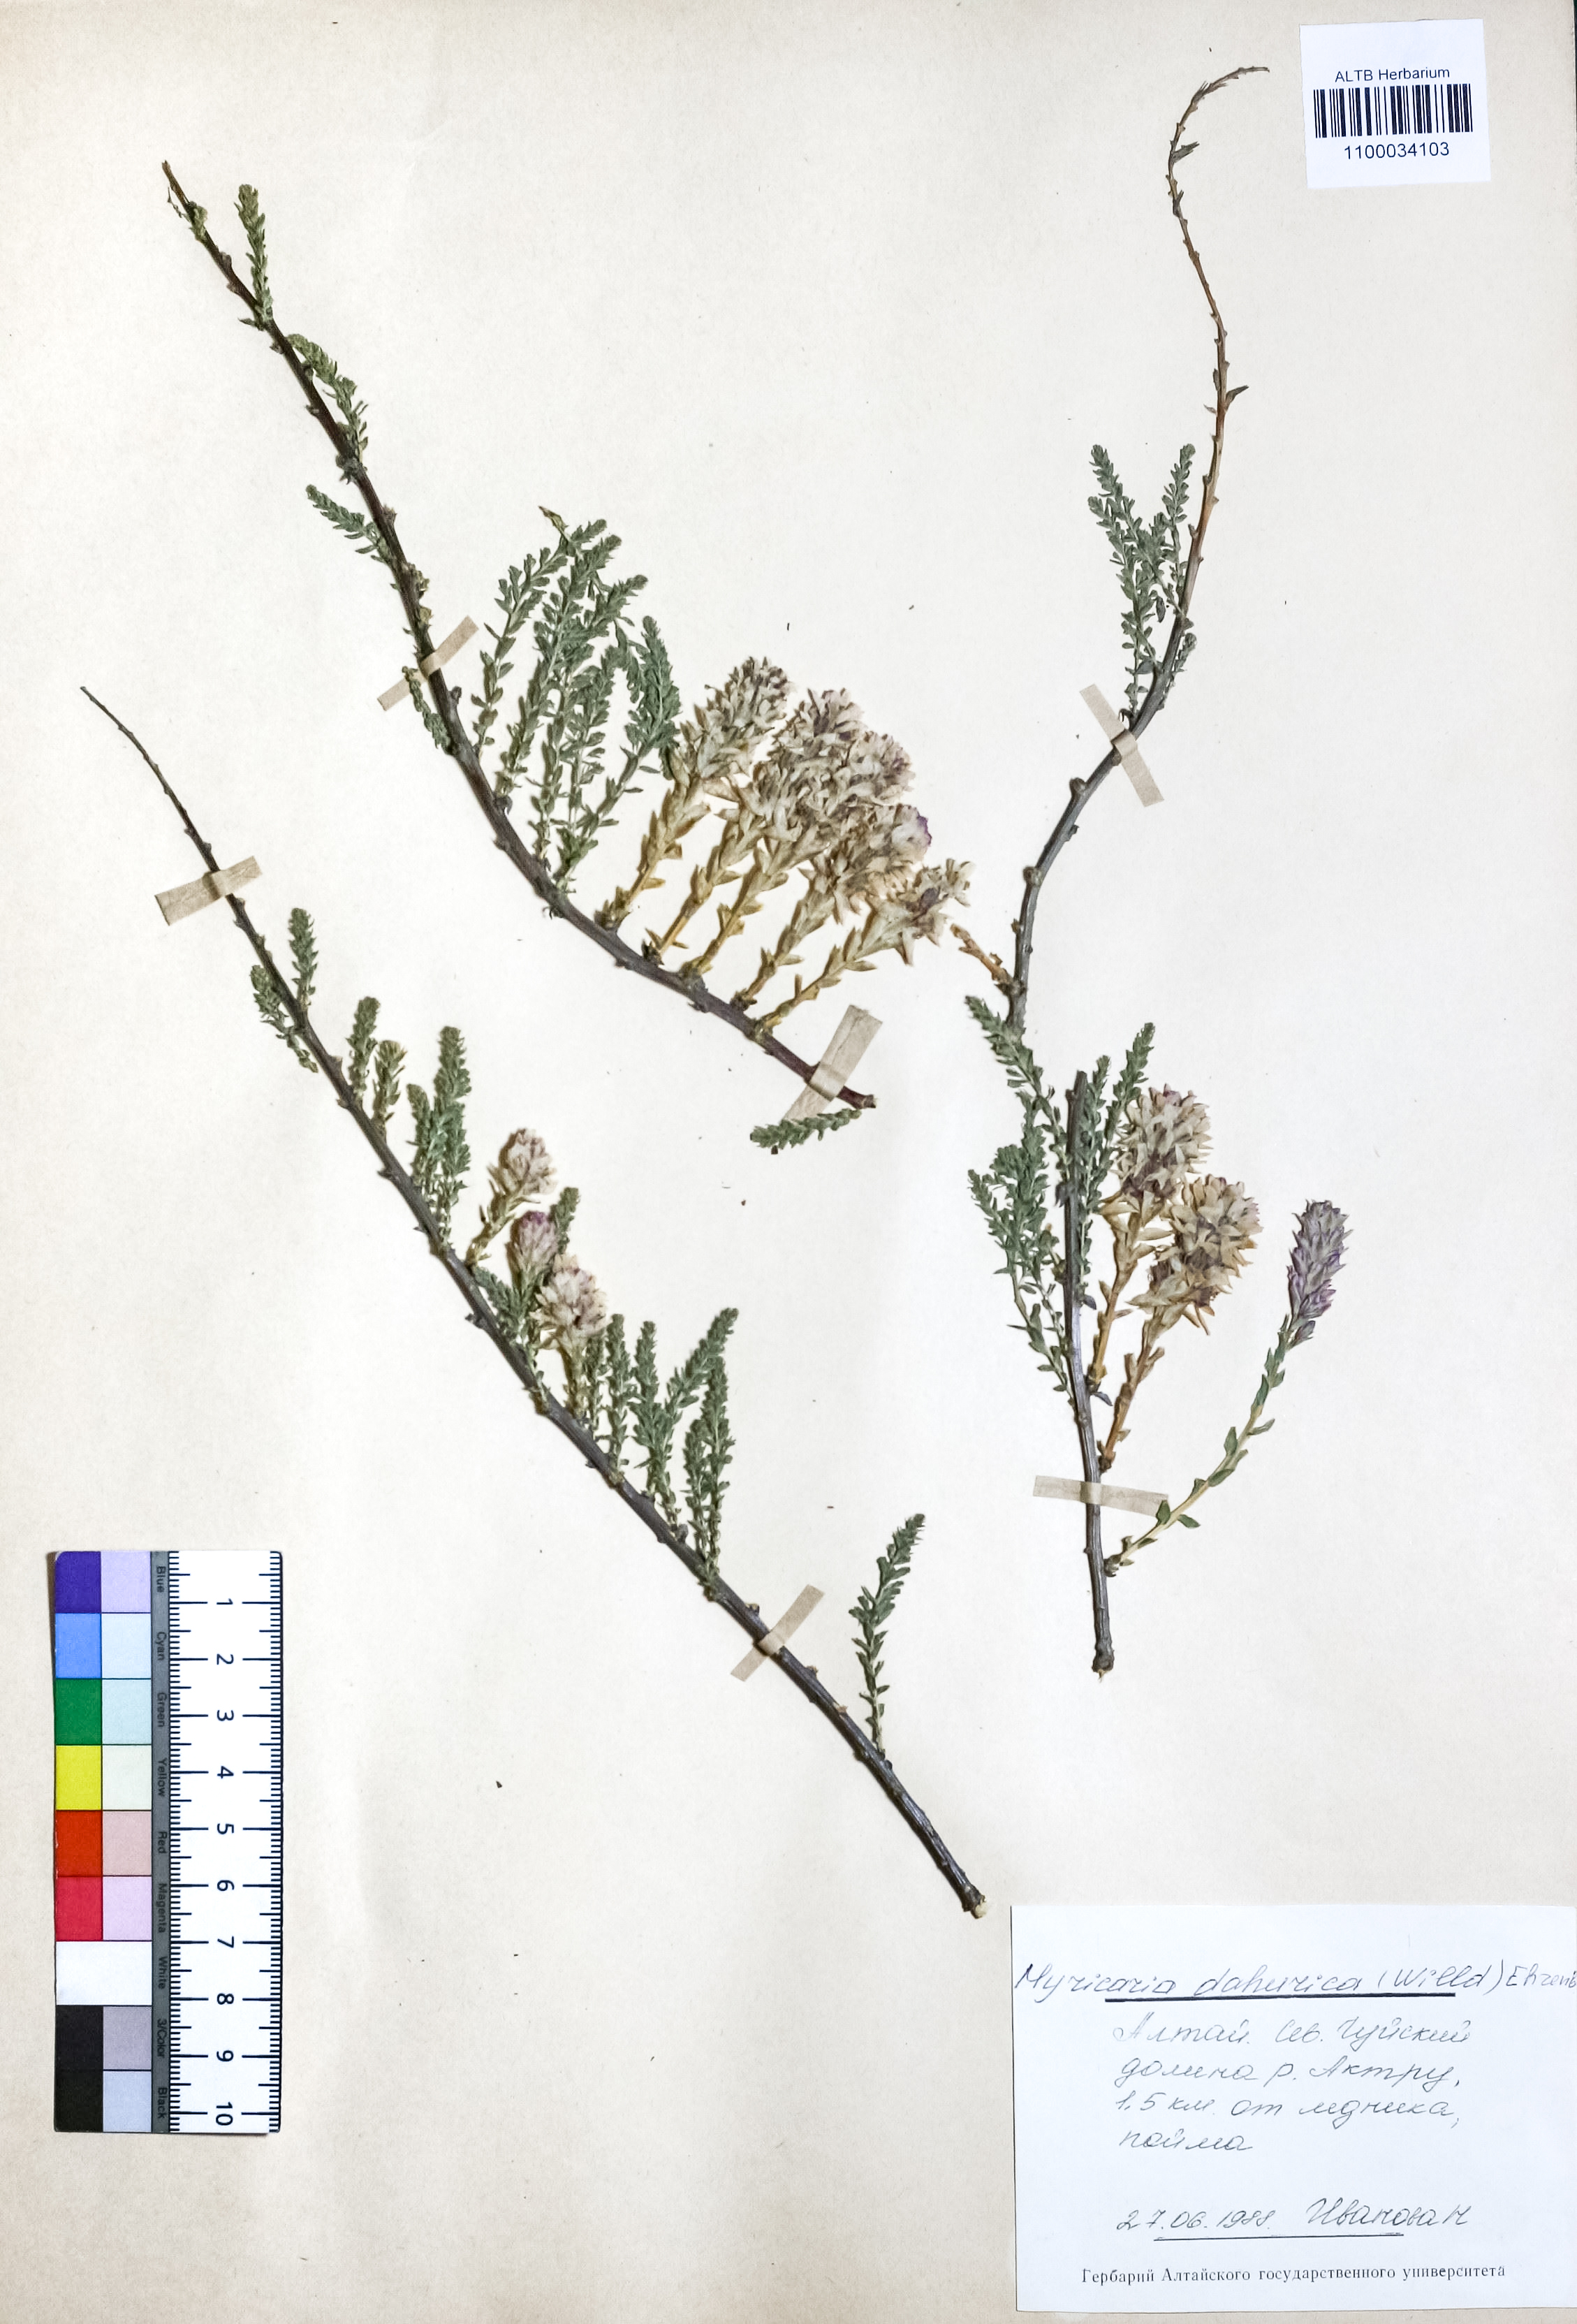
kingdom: Plantae
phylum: Tracheophyta
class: Magnoliopsida
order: Caryophyllales
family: Tamaricaceae
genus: Myricaria
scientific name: Myricaria davurica
